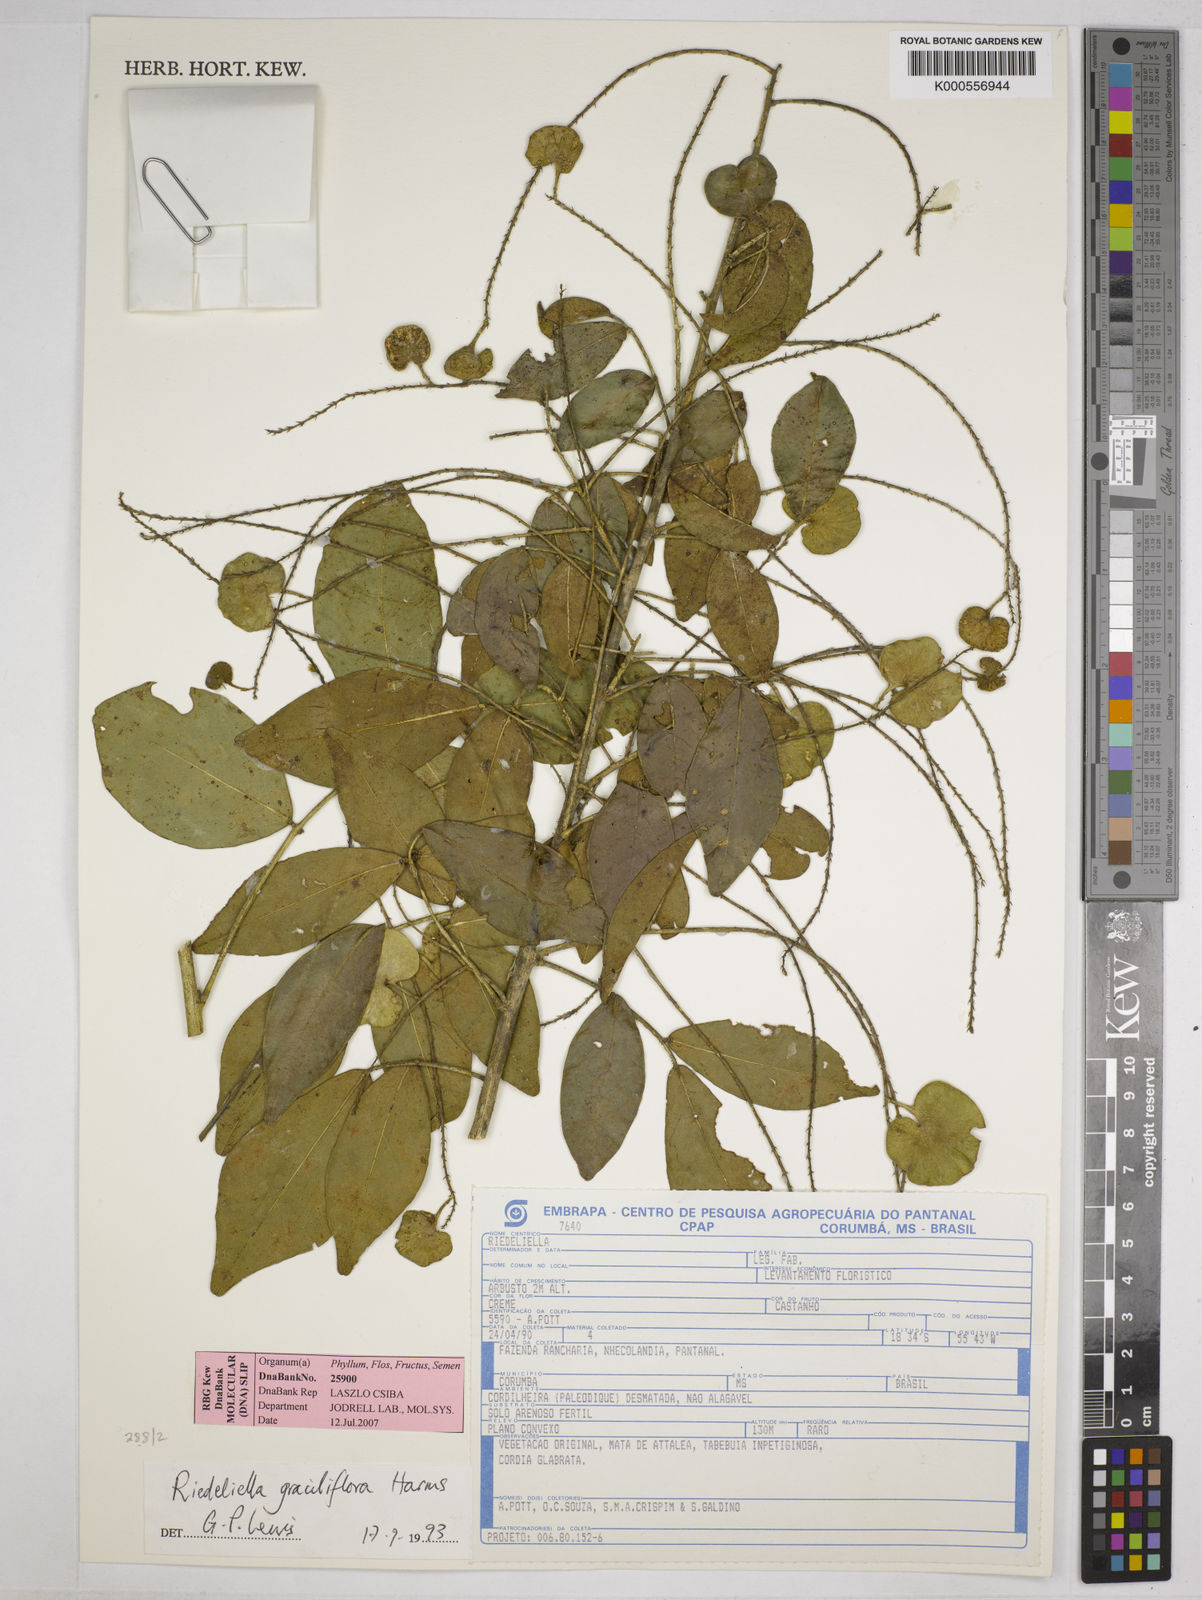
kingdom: Plantae
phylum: Tracheophyta
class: Magnoliopsida
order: Fabales
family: Fabaceae
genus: Riedeliella
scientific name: Riedeliella graciliflora
